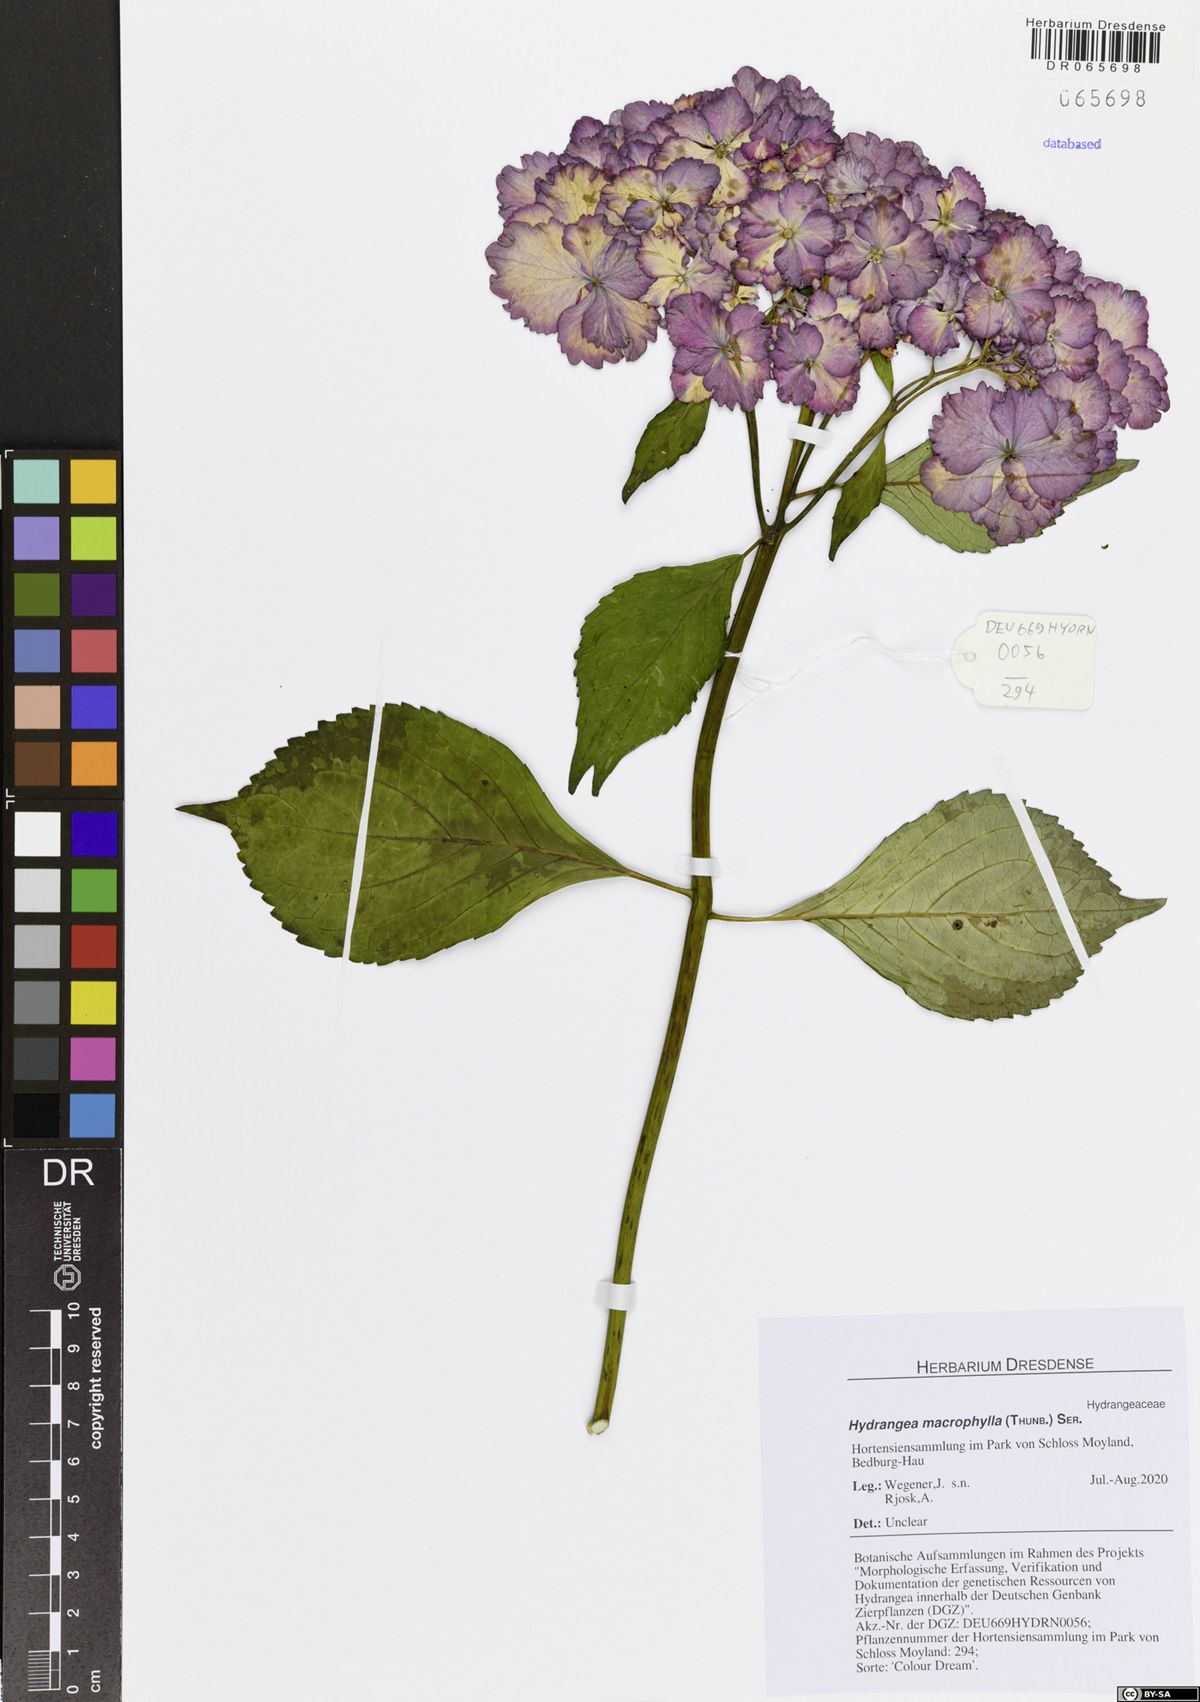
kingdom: Plantae
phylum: Tracheophyta
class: Magnoliopsida
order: Cornales
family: Hydrangeaceae
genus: Hydrangea
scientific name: Hydrangea macrophylla
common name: Hydrangea
